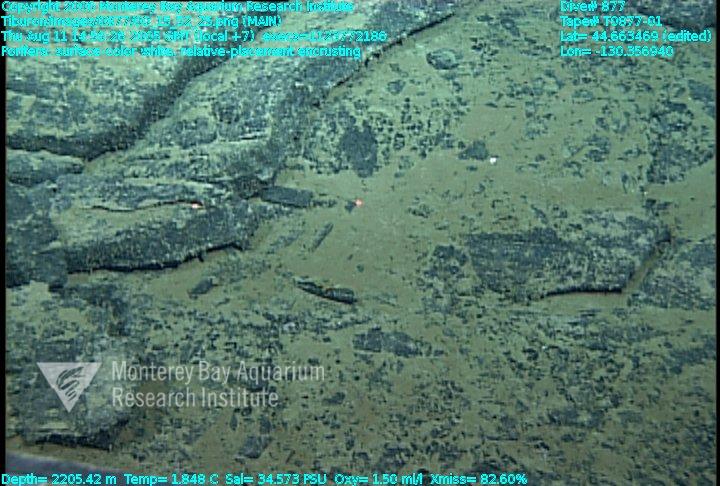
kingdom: Animalia
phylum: Porifera
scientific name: Porifera
